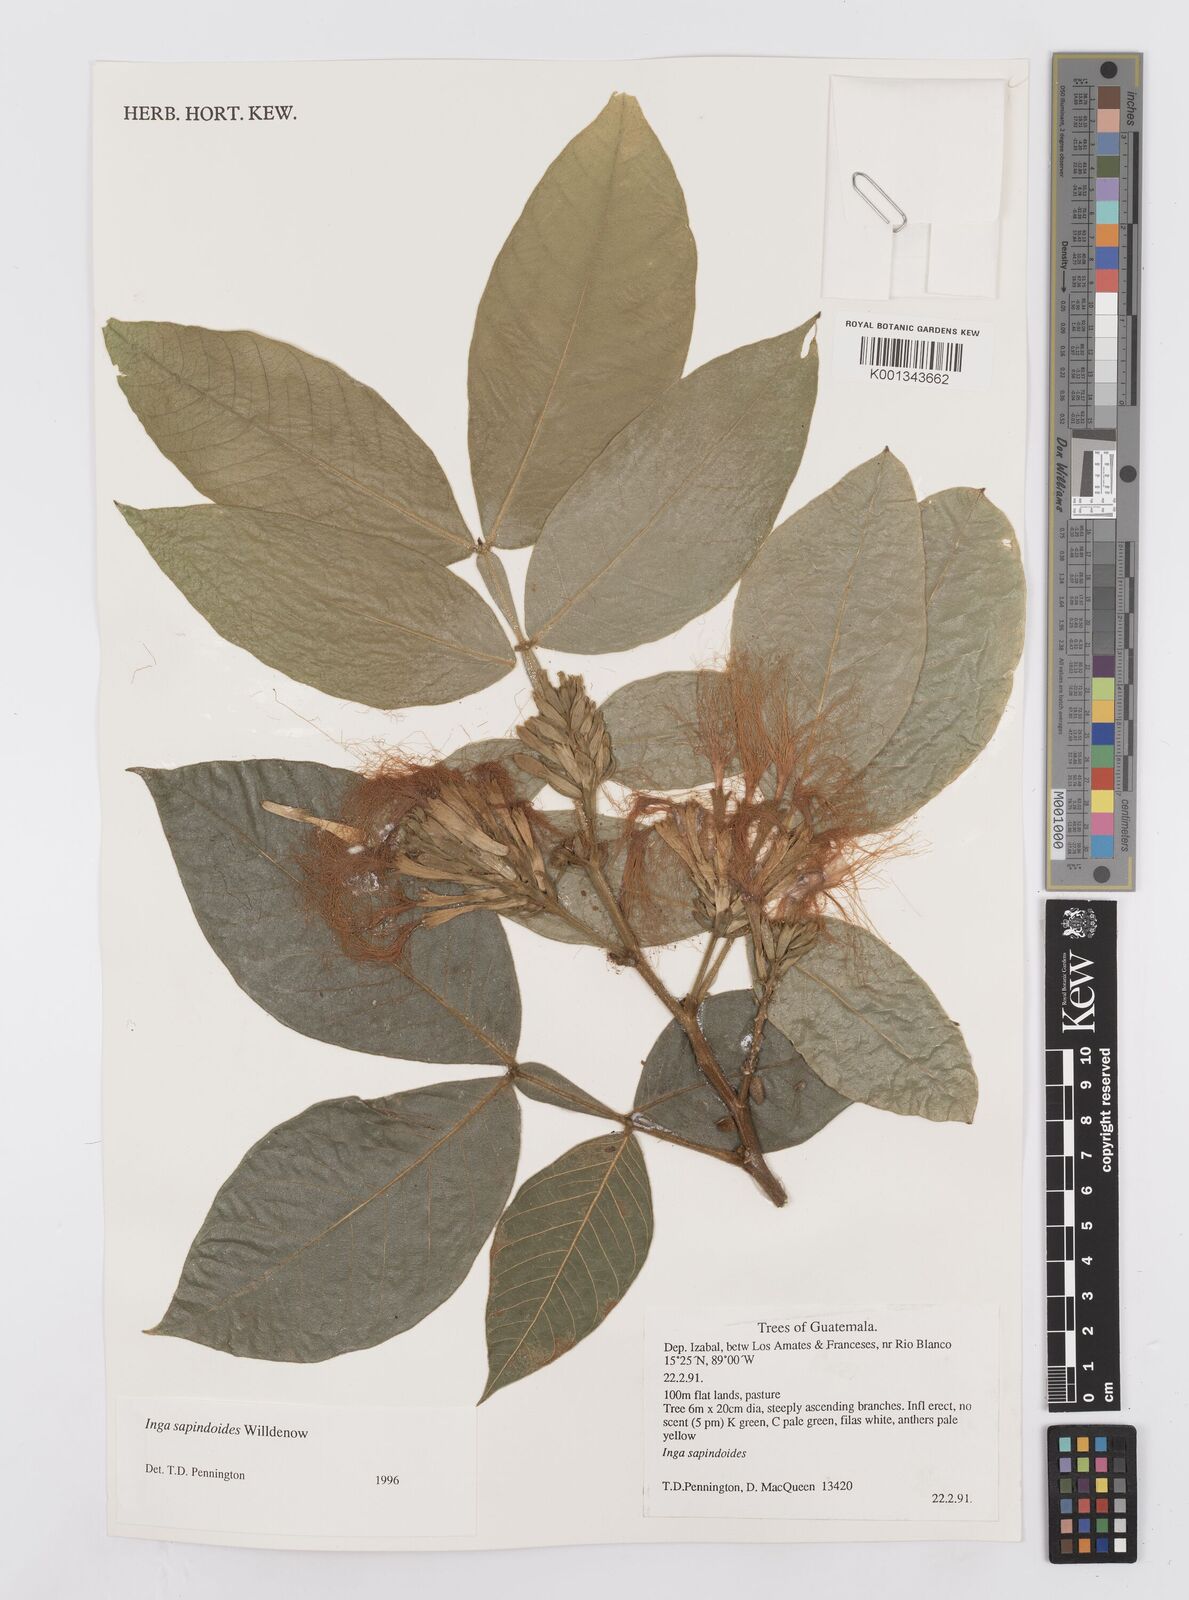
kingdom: Plantae
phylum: Tracheophyta
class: Magnoliopsida
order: Fabales
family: Fabaceae
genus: Inga
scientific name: Inga sapindoides
